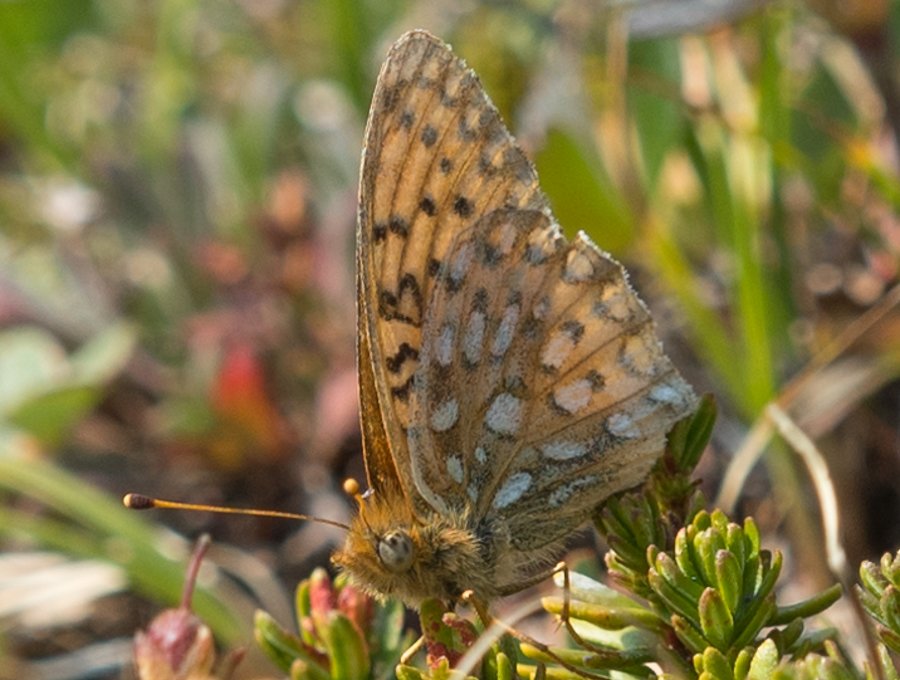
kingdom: Animalia
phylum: Arthropoda
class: Insecta
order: Lepidoptera
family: Nymphalidae
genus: Speyeria
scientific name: Speyeria mormonia
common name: Mormon Fritillary
